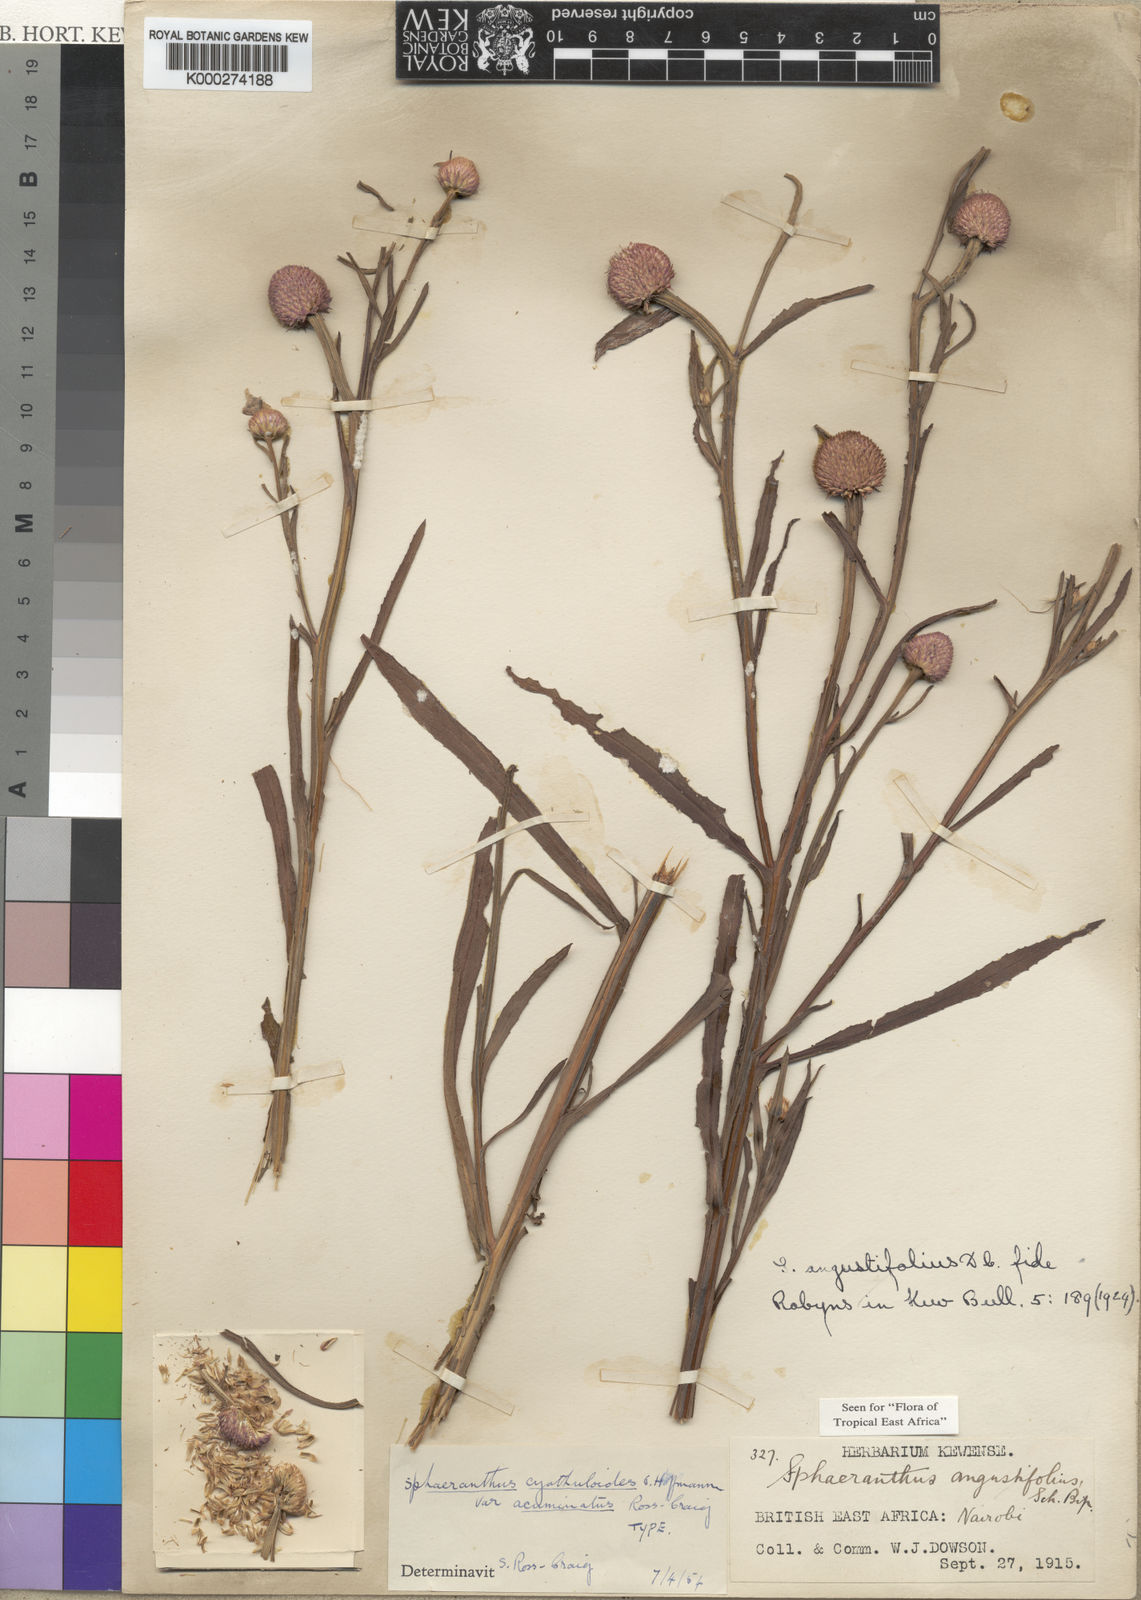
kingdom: Plantae
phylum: Tracheophyta
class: Magnoliopsida
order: Asterales
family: Asteraceae
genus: Sphaeranthus
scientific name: Sphaeranthus kirkii
